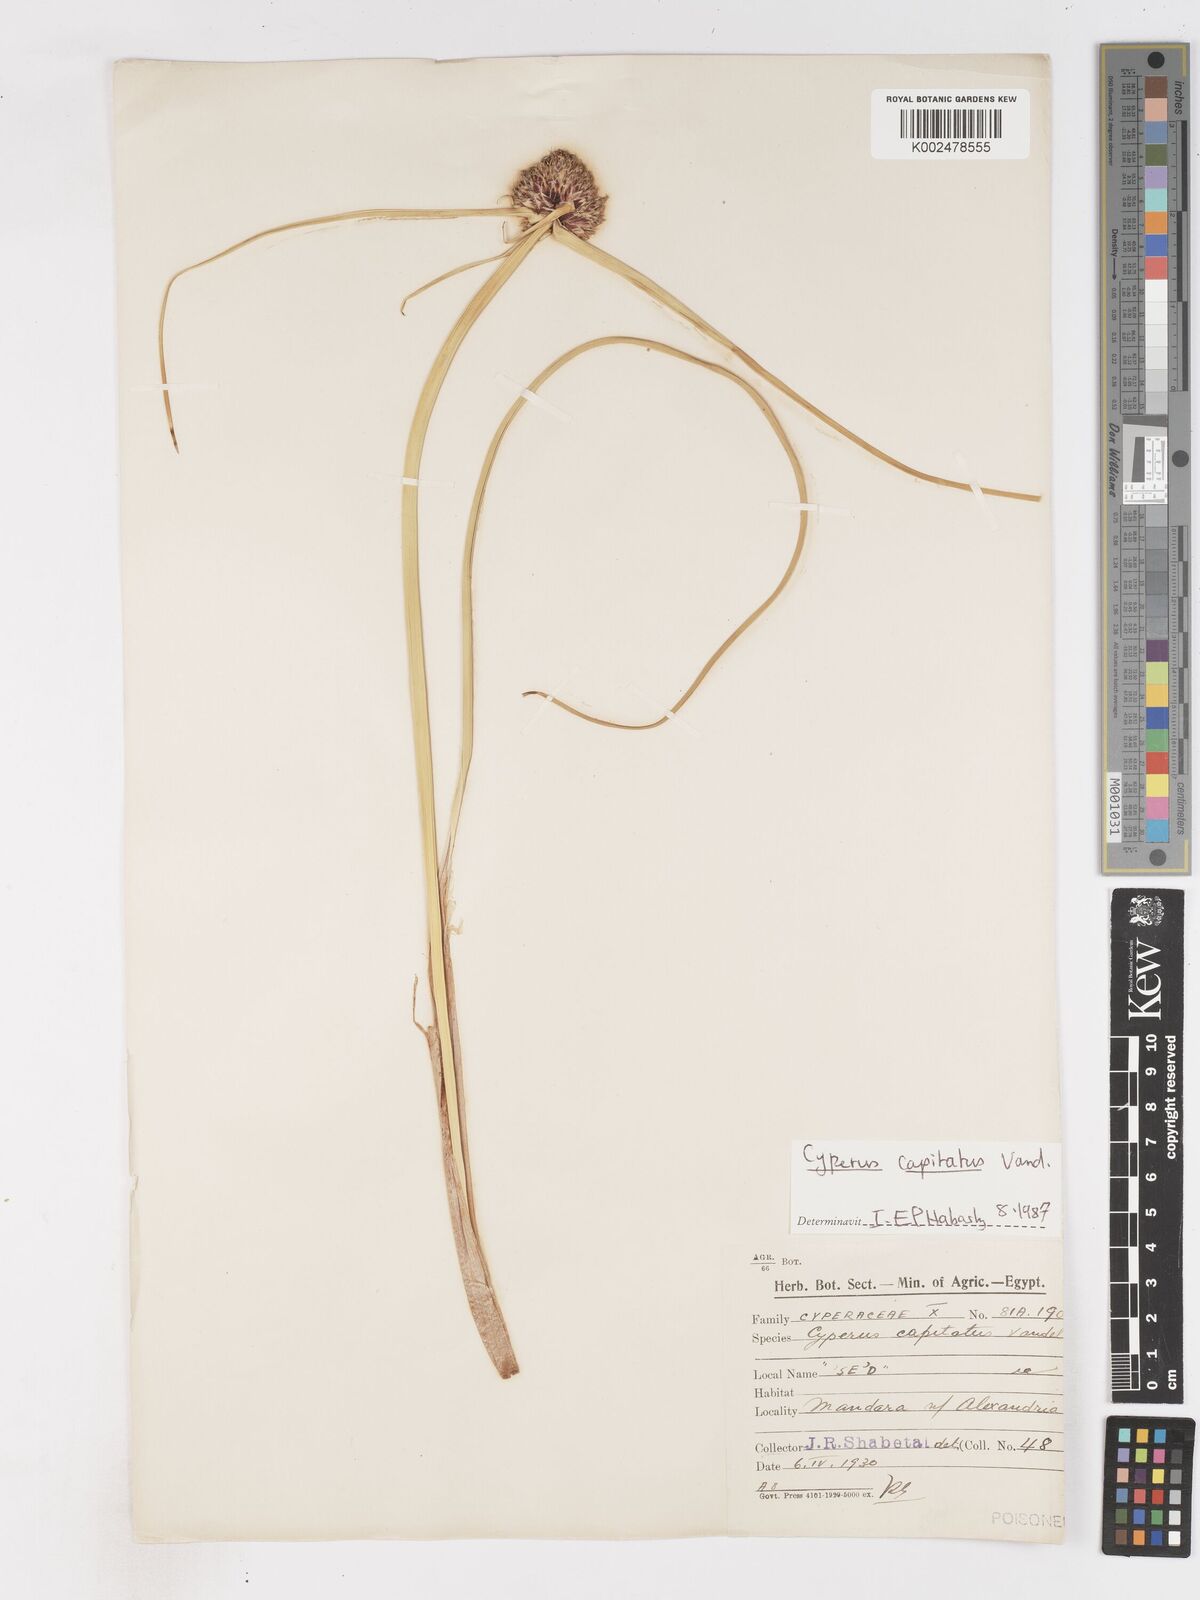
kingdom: Plantae
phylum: Tracheophyta
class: Liliopsida
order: Poales
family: Cyperaceae
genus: Cyperus
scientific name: Cyperus capitatus
